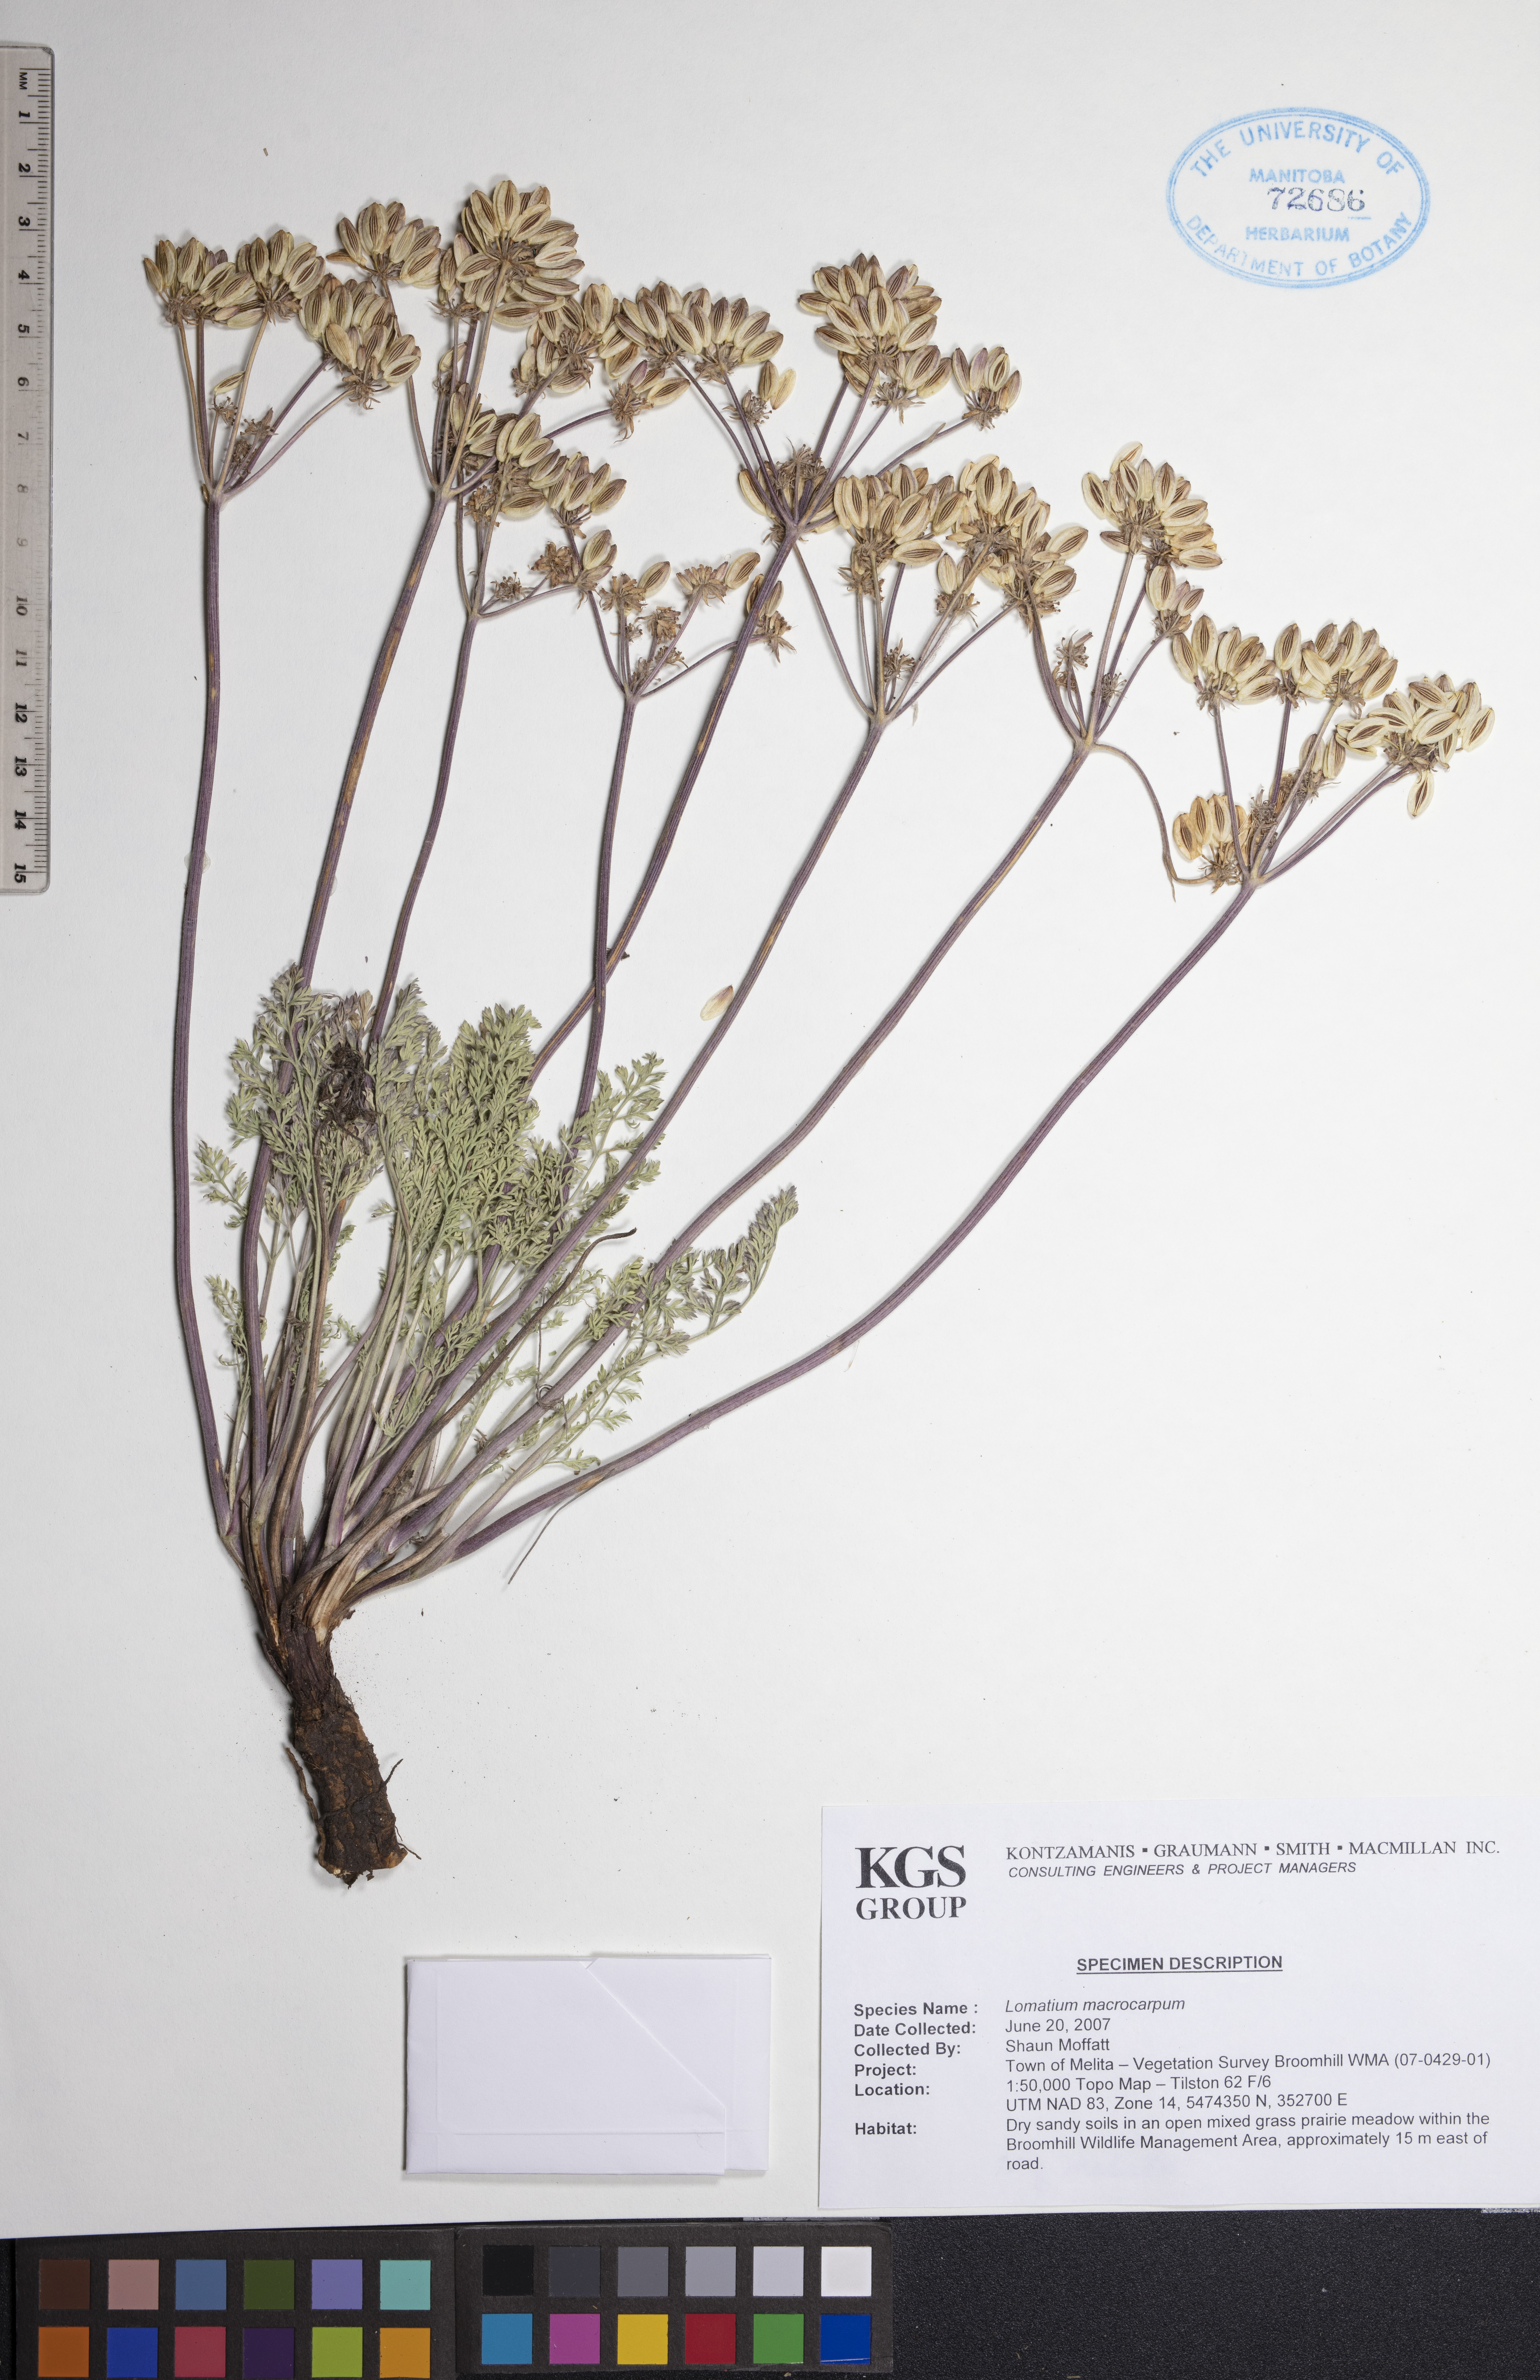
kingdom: Plantae
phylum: Tracheophyta
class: Magnoliopsida
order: Apiales
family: Apiaceae
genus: Lomatium
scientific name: Lomatium macrocarpum
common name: Big-seed biscuitroot
